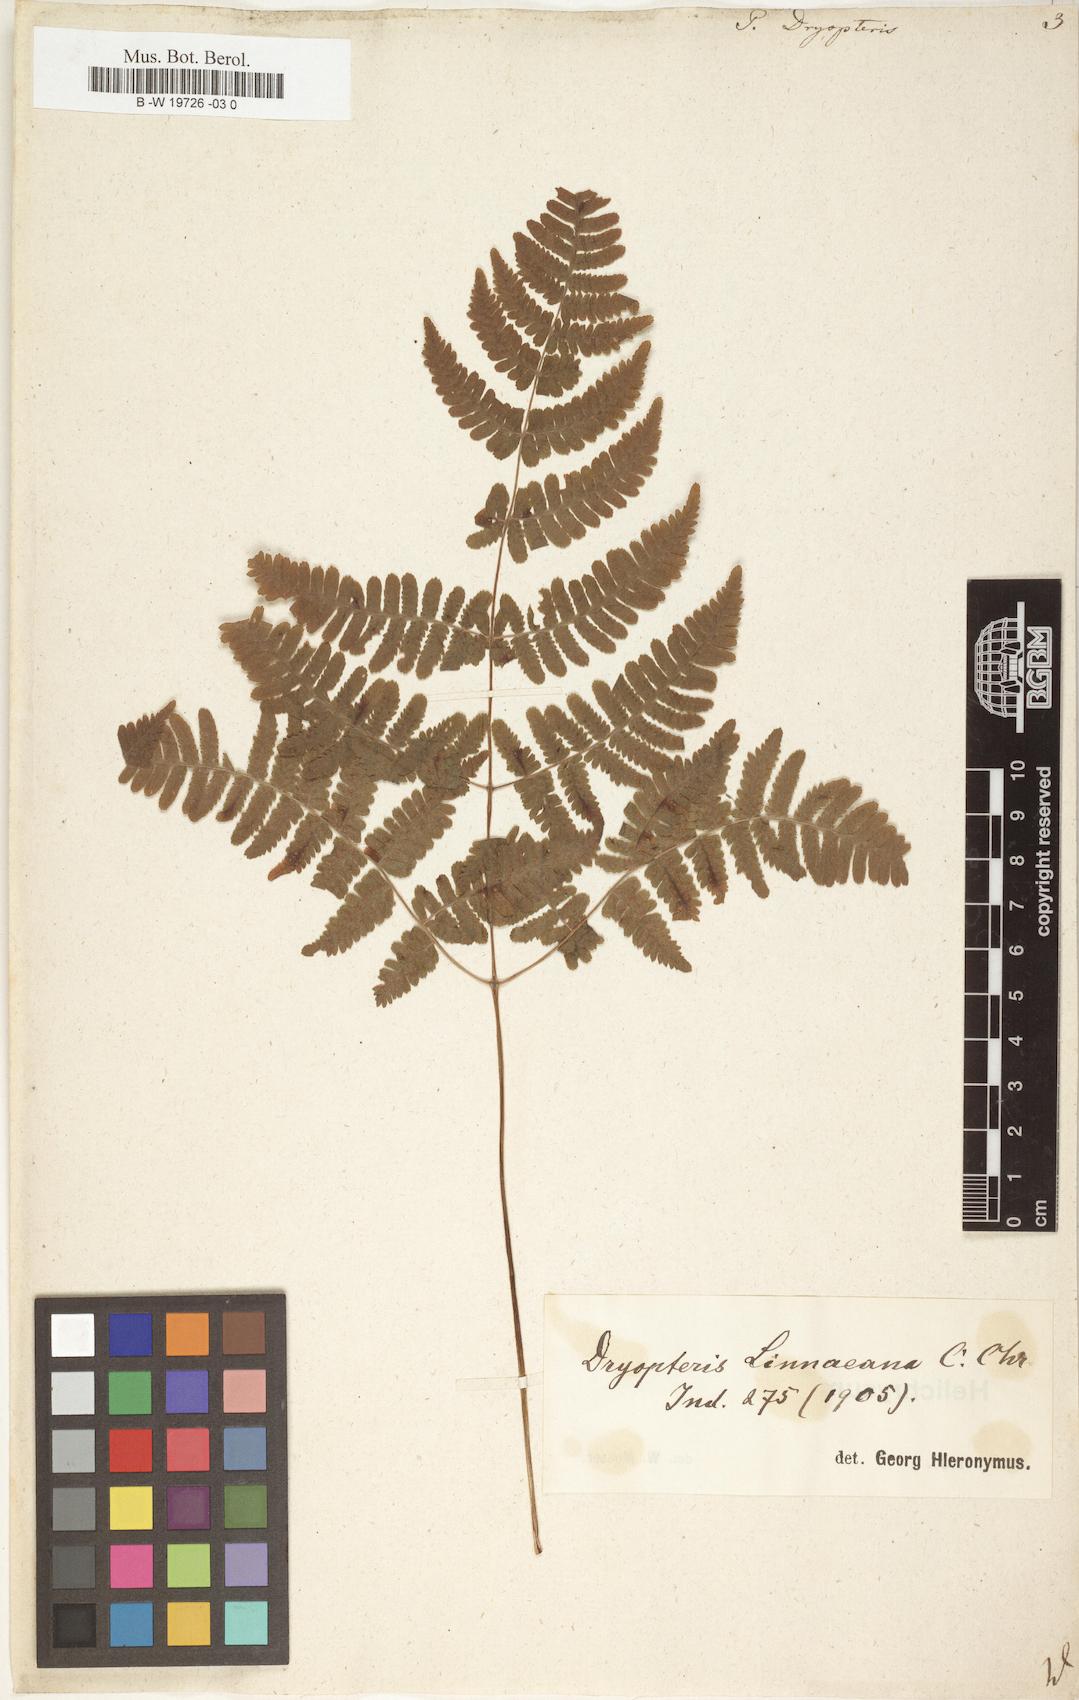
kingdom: Plantae
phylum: Tracheophyta
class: Polypodiopsida
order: Polypodiales
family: Cystopteridaceae
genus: Gymnocarpium
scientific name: Gymnocarpium dryopteris
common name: Oak fern
